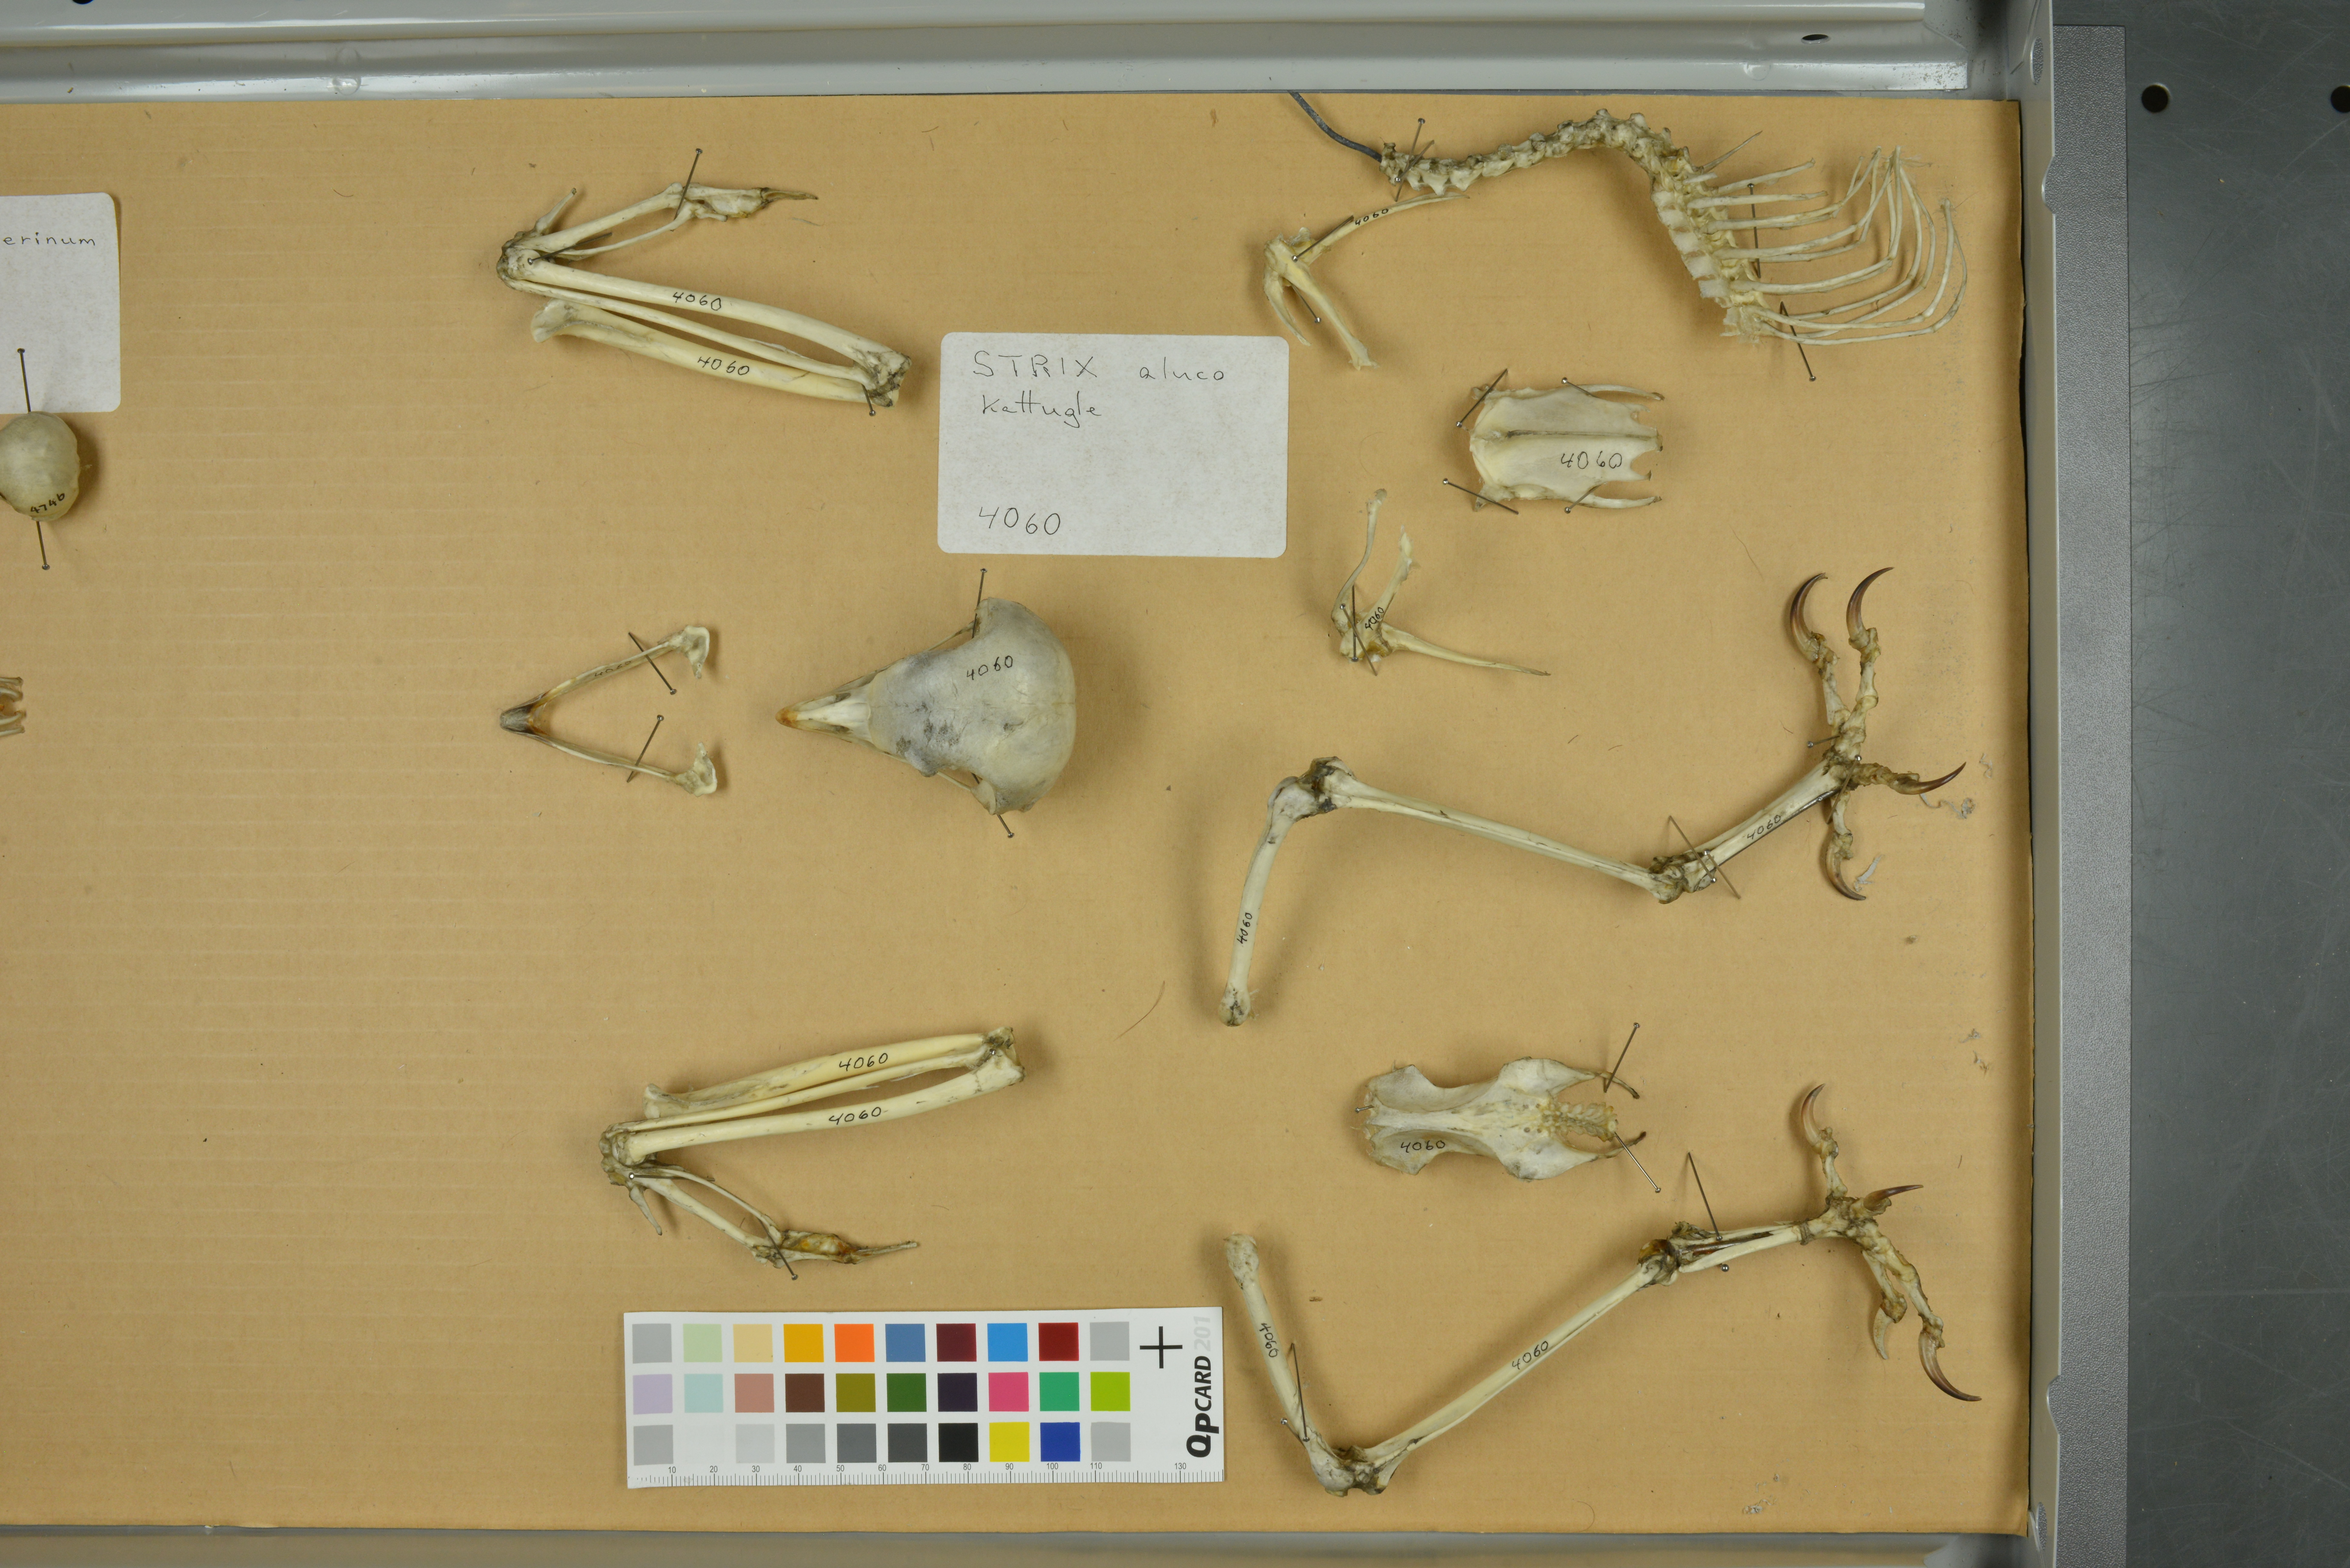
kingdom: Animalia
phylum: Chordata
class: Aves
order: Strigiformes
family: Strigidae
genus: Strix
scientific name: Strix aluco
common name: Tawny owl
